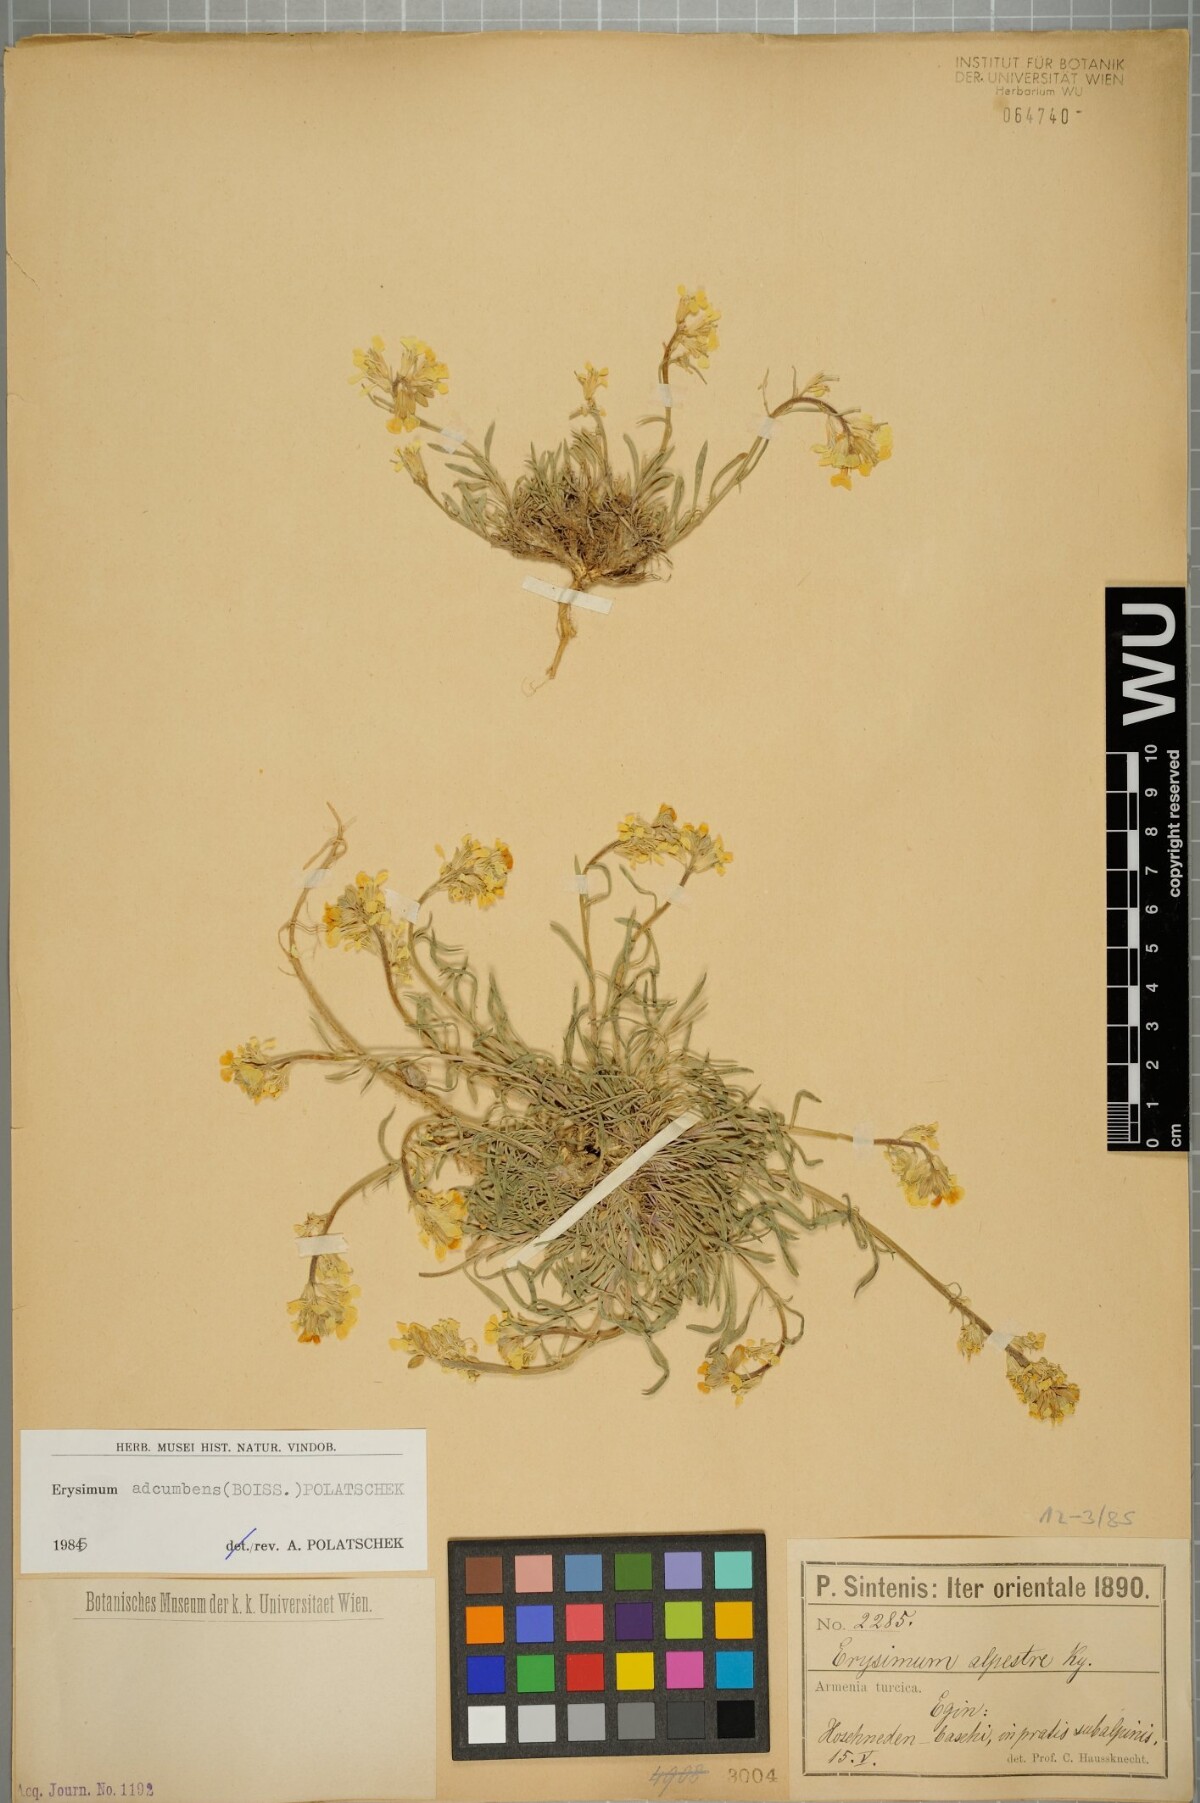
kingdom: Plantae
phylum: Tracheophyta
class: Magnoliopsida
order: Brassicales
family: Brassicaceae
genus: Erysimum
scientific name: Erysimum adcumbens
